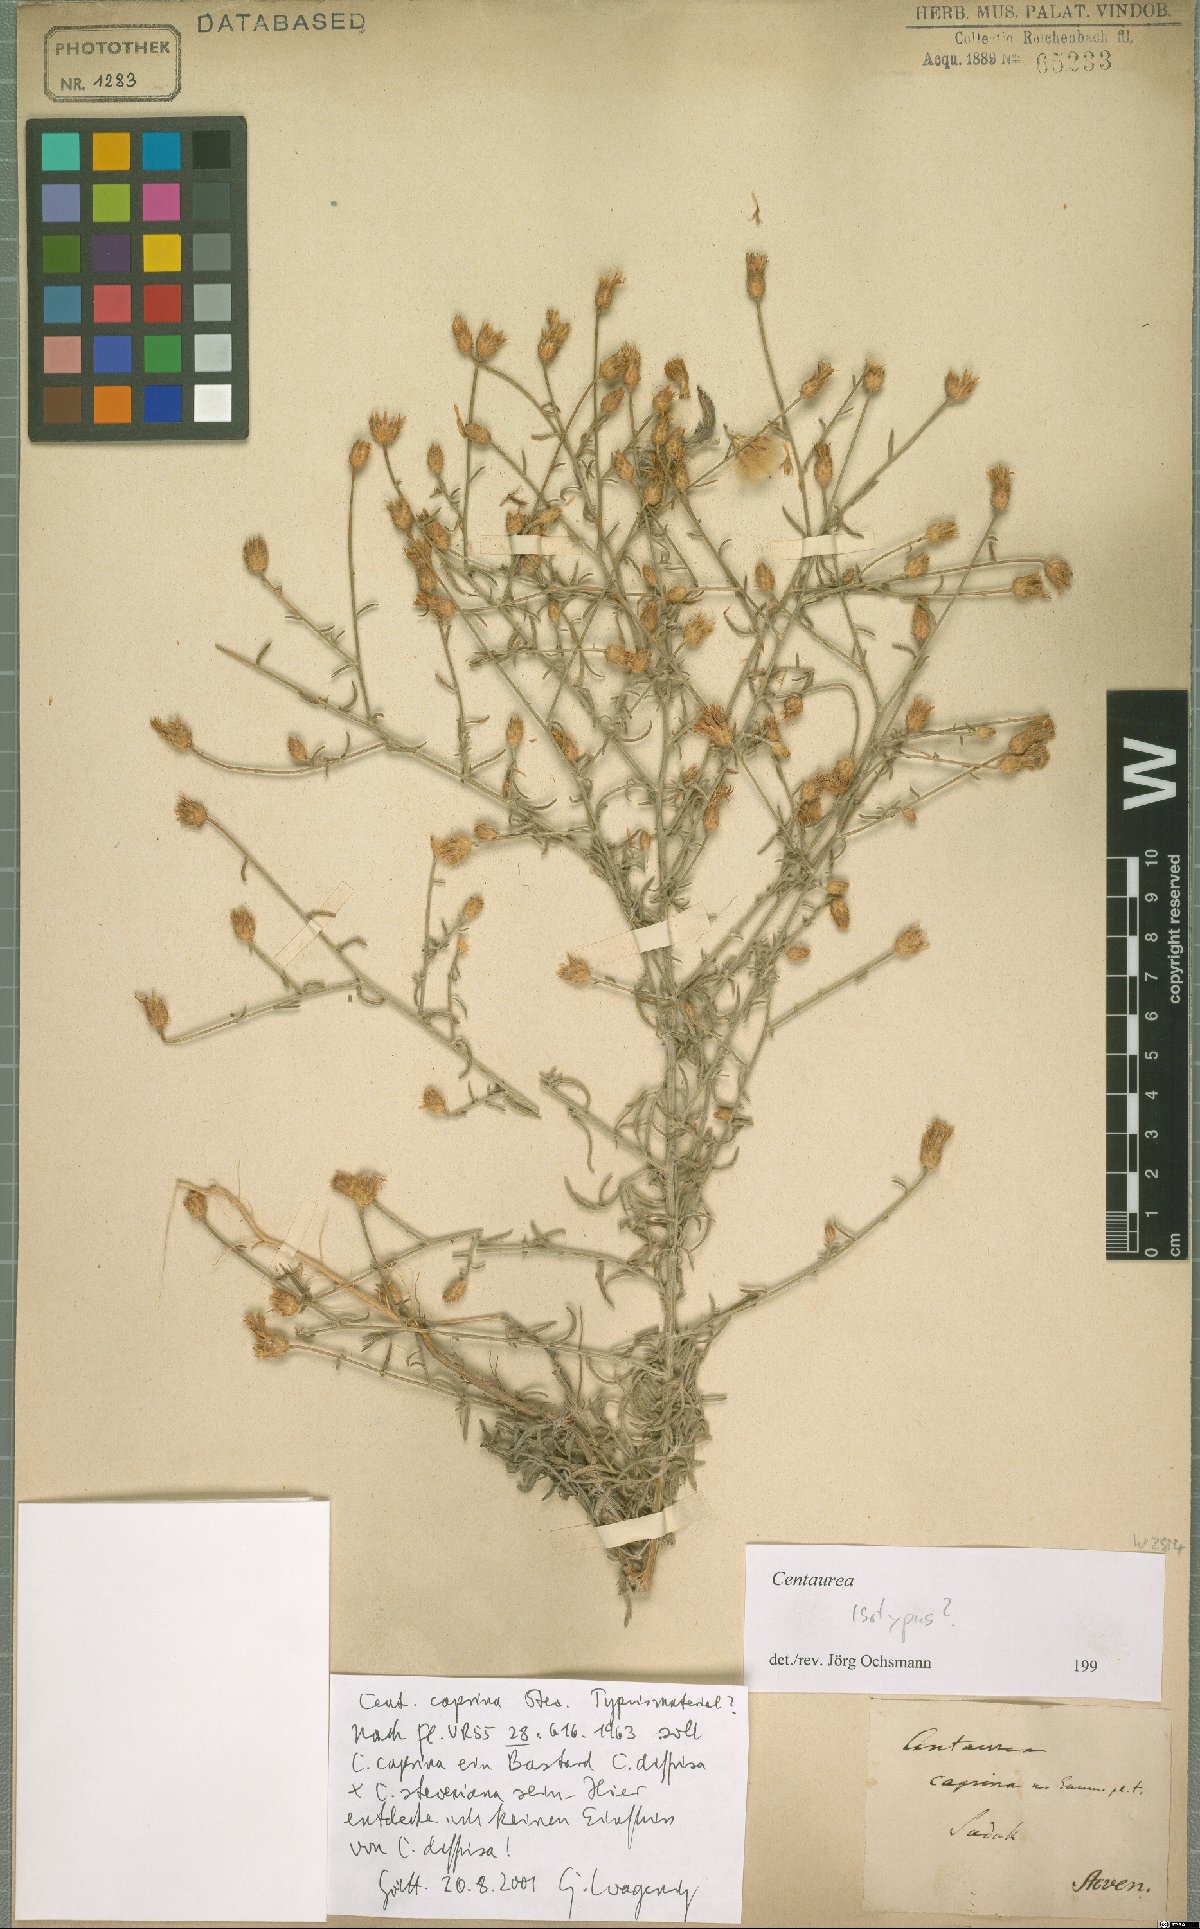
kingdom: Plantae
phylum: Tracheophyta
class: Magnoliopsida
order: Asterales
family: Asteraceae
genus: Centaurea
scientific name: Centaurea caprina
